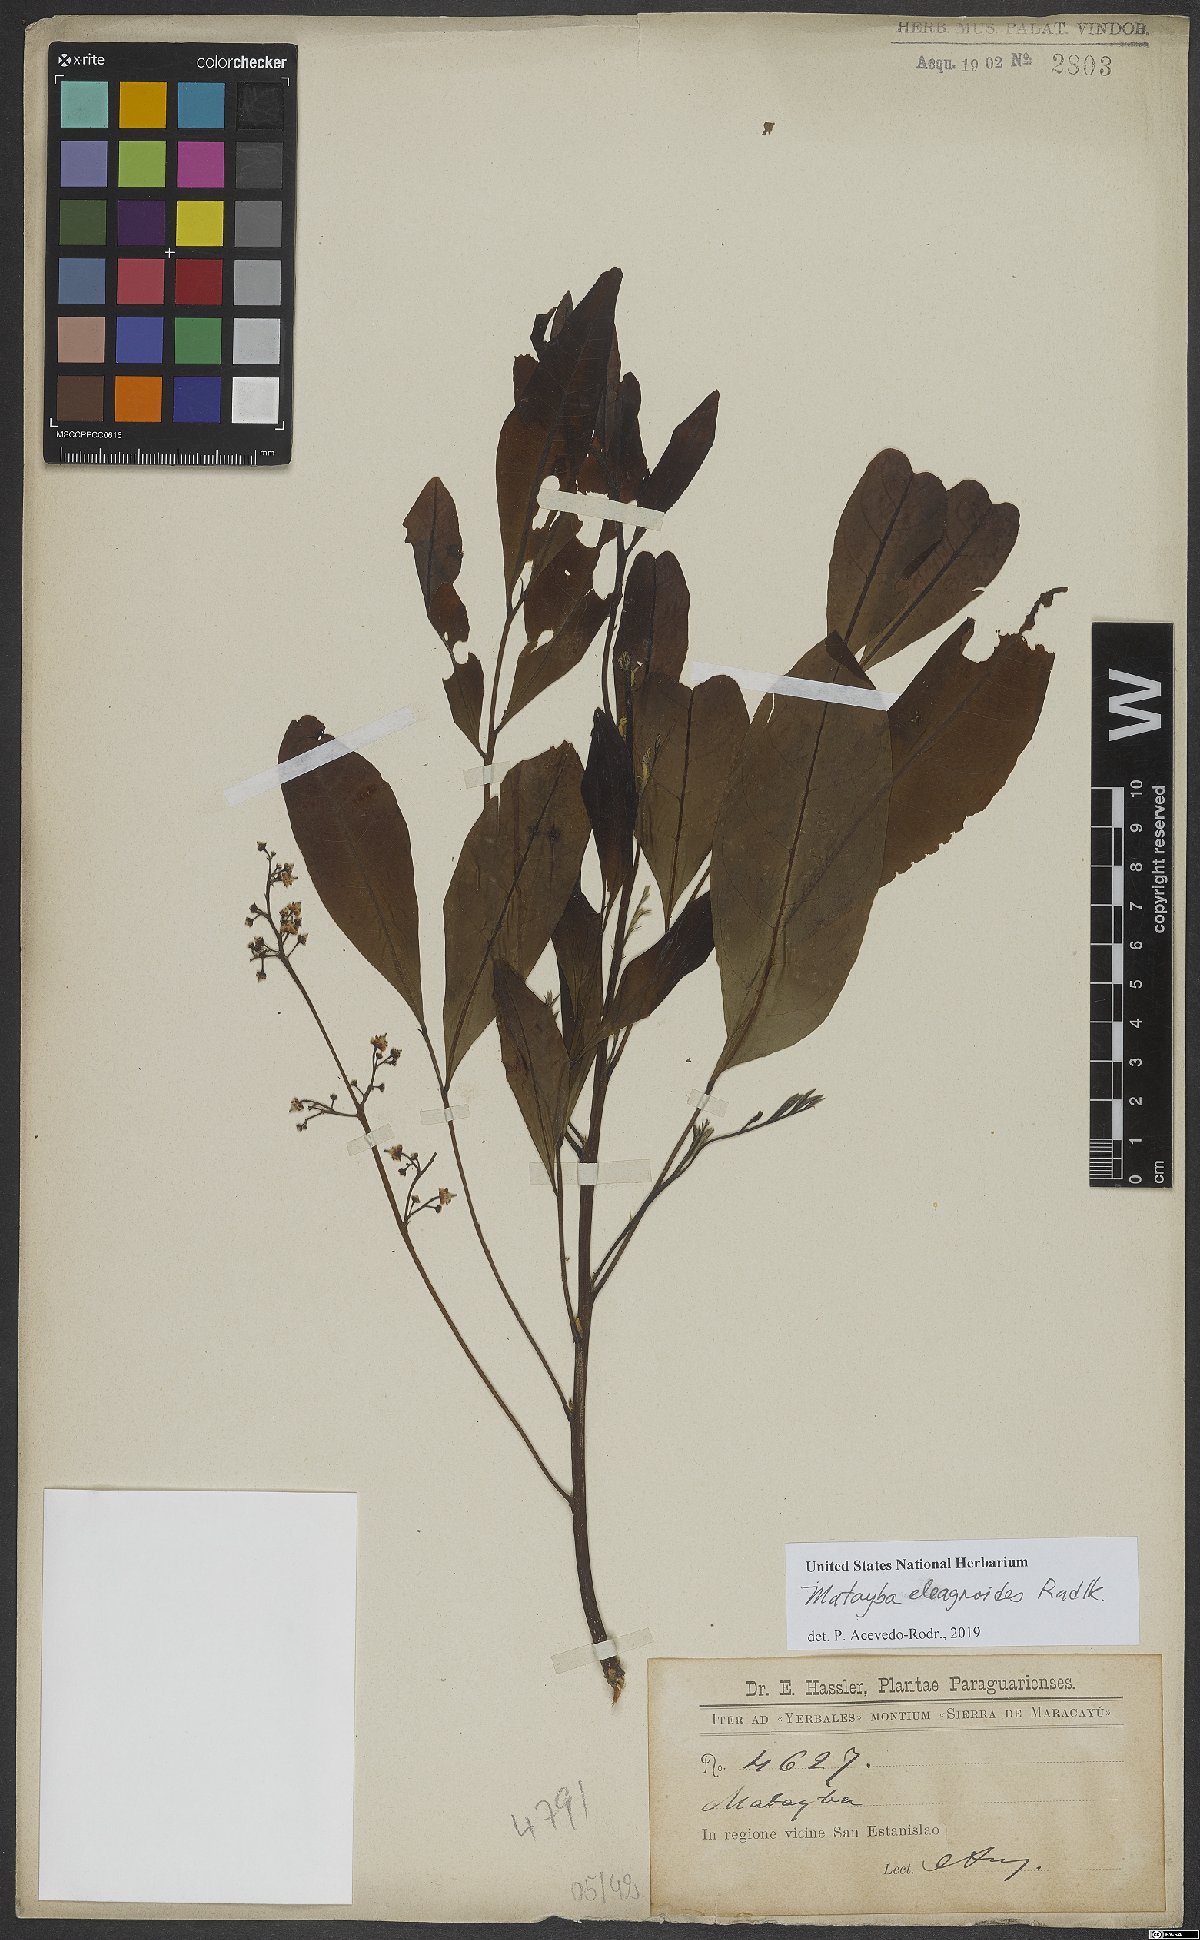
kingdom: Plantae
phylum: Tracheophyta
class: Magnoliopsida
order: Sapindales
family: Sapindaceae
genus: Matayba
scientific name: Matayba elaeagnoides
